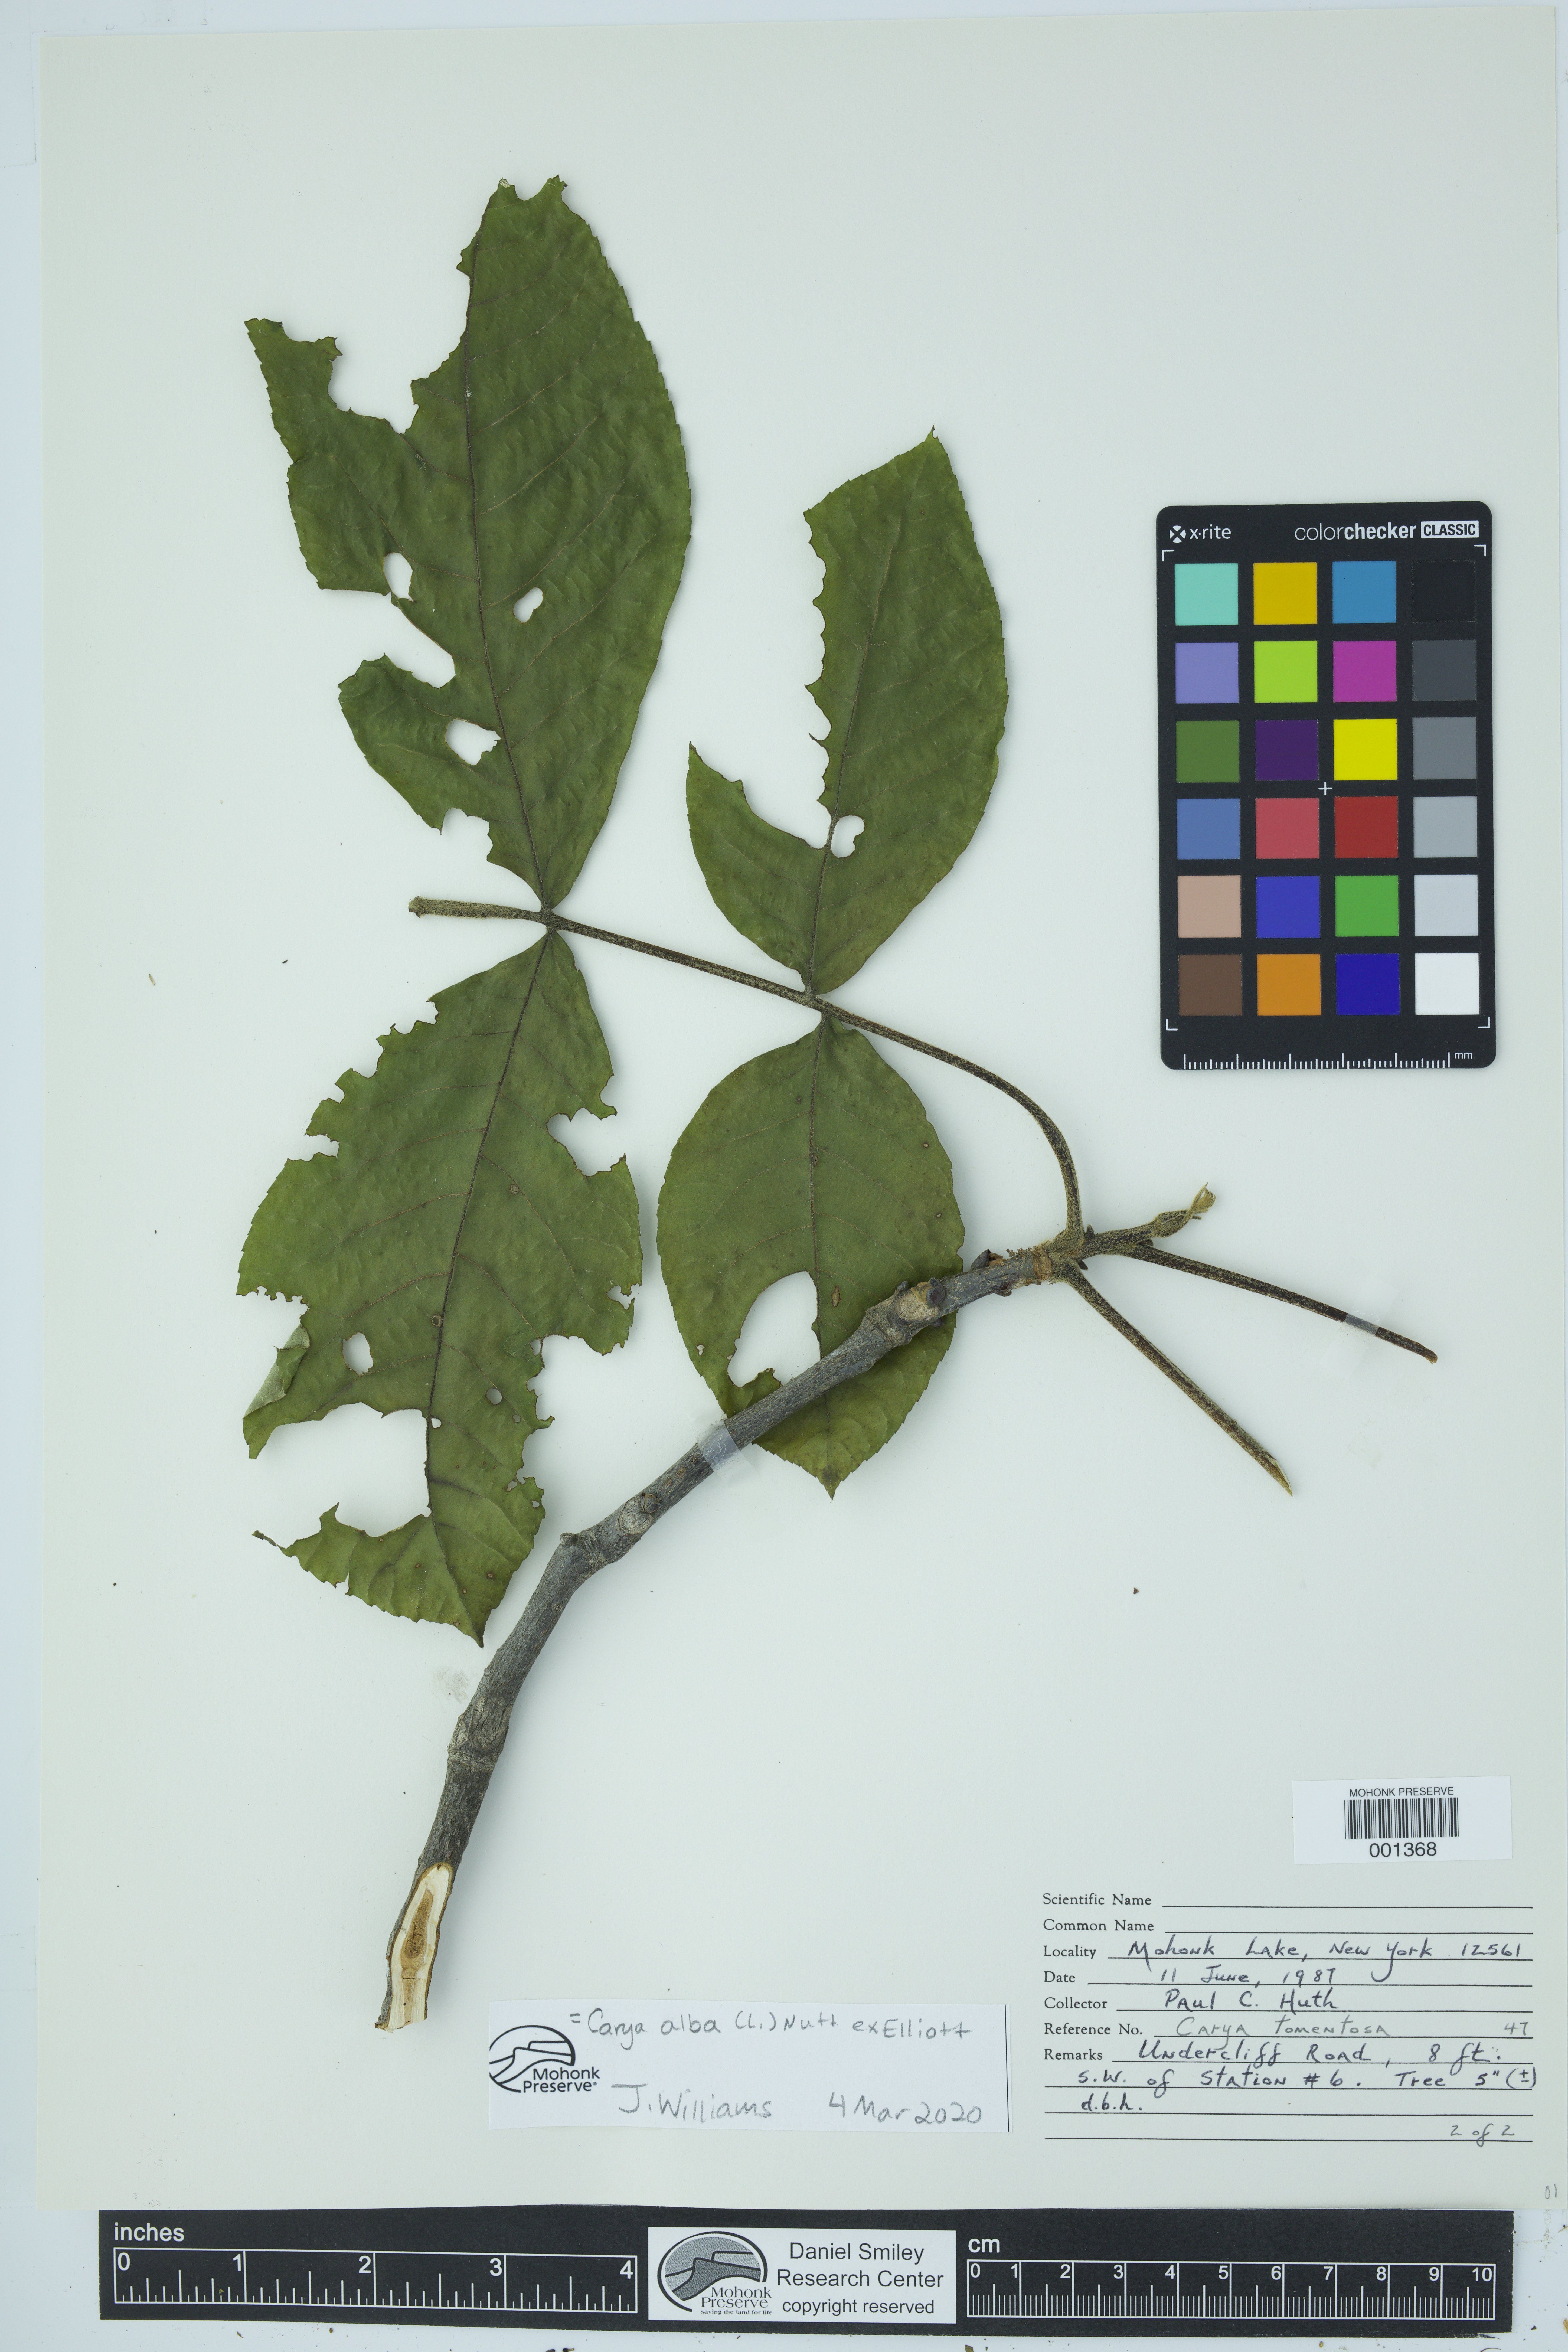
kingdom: Plantae
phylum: Tracheophyta
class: Magnoliopsida
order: Fagales
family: Juglandaceae
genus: Carya
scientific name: Carya alba
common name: Mockernut hickory
